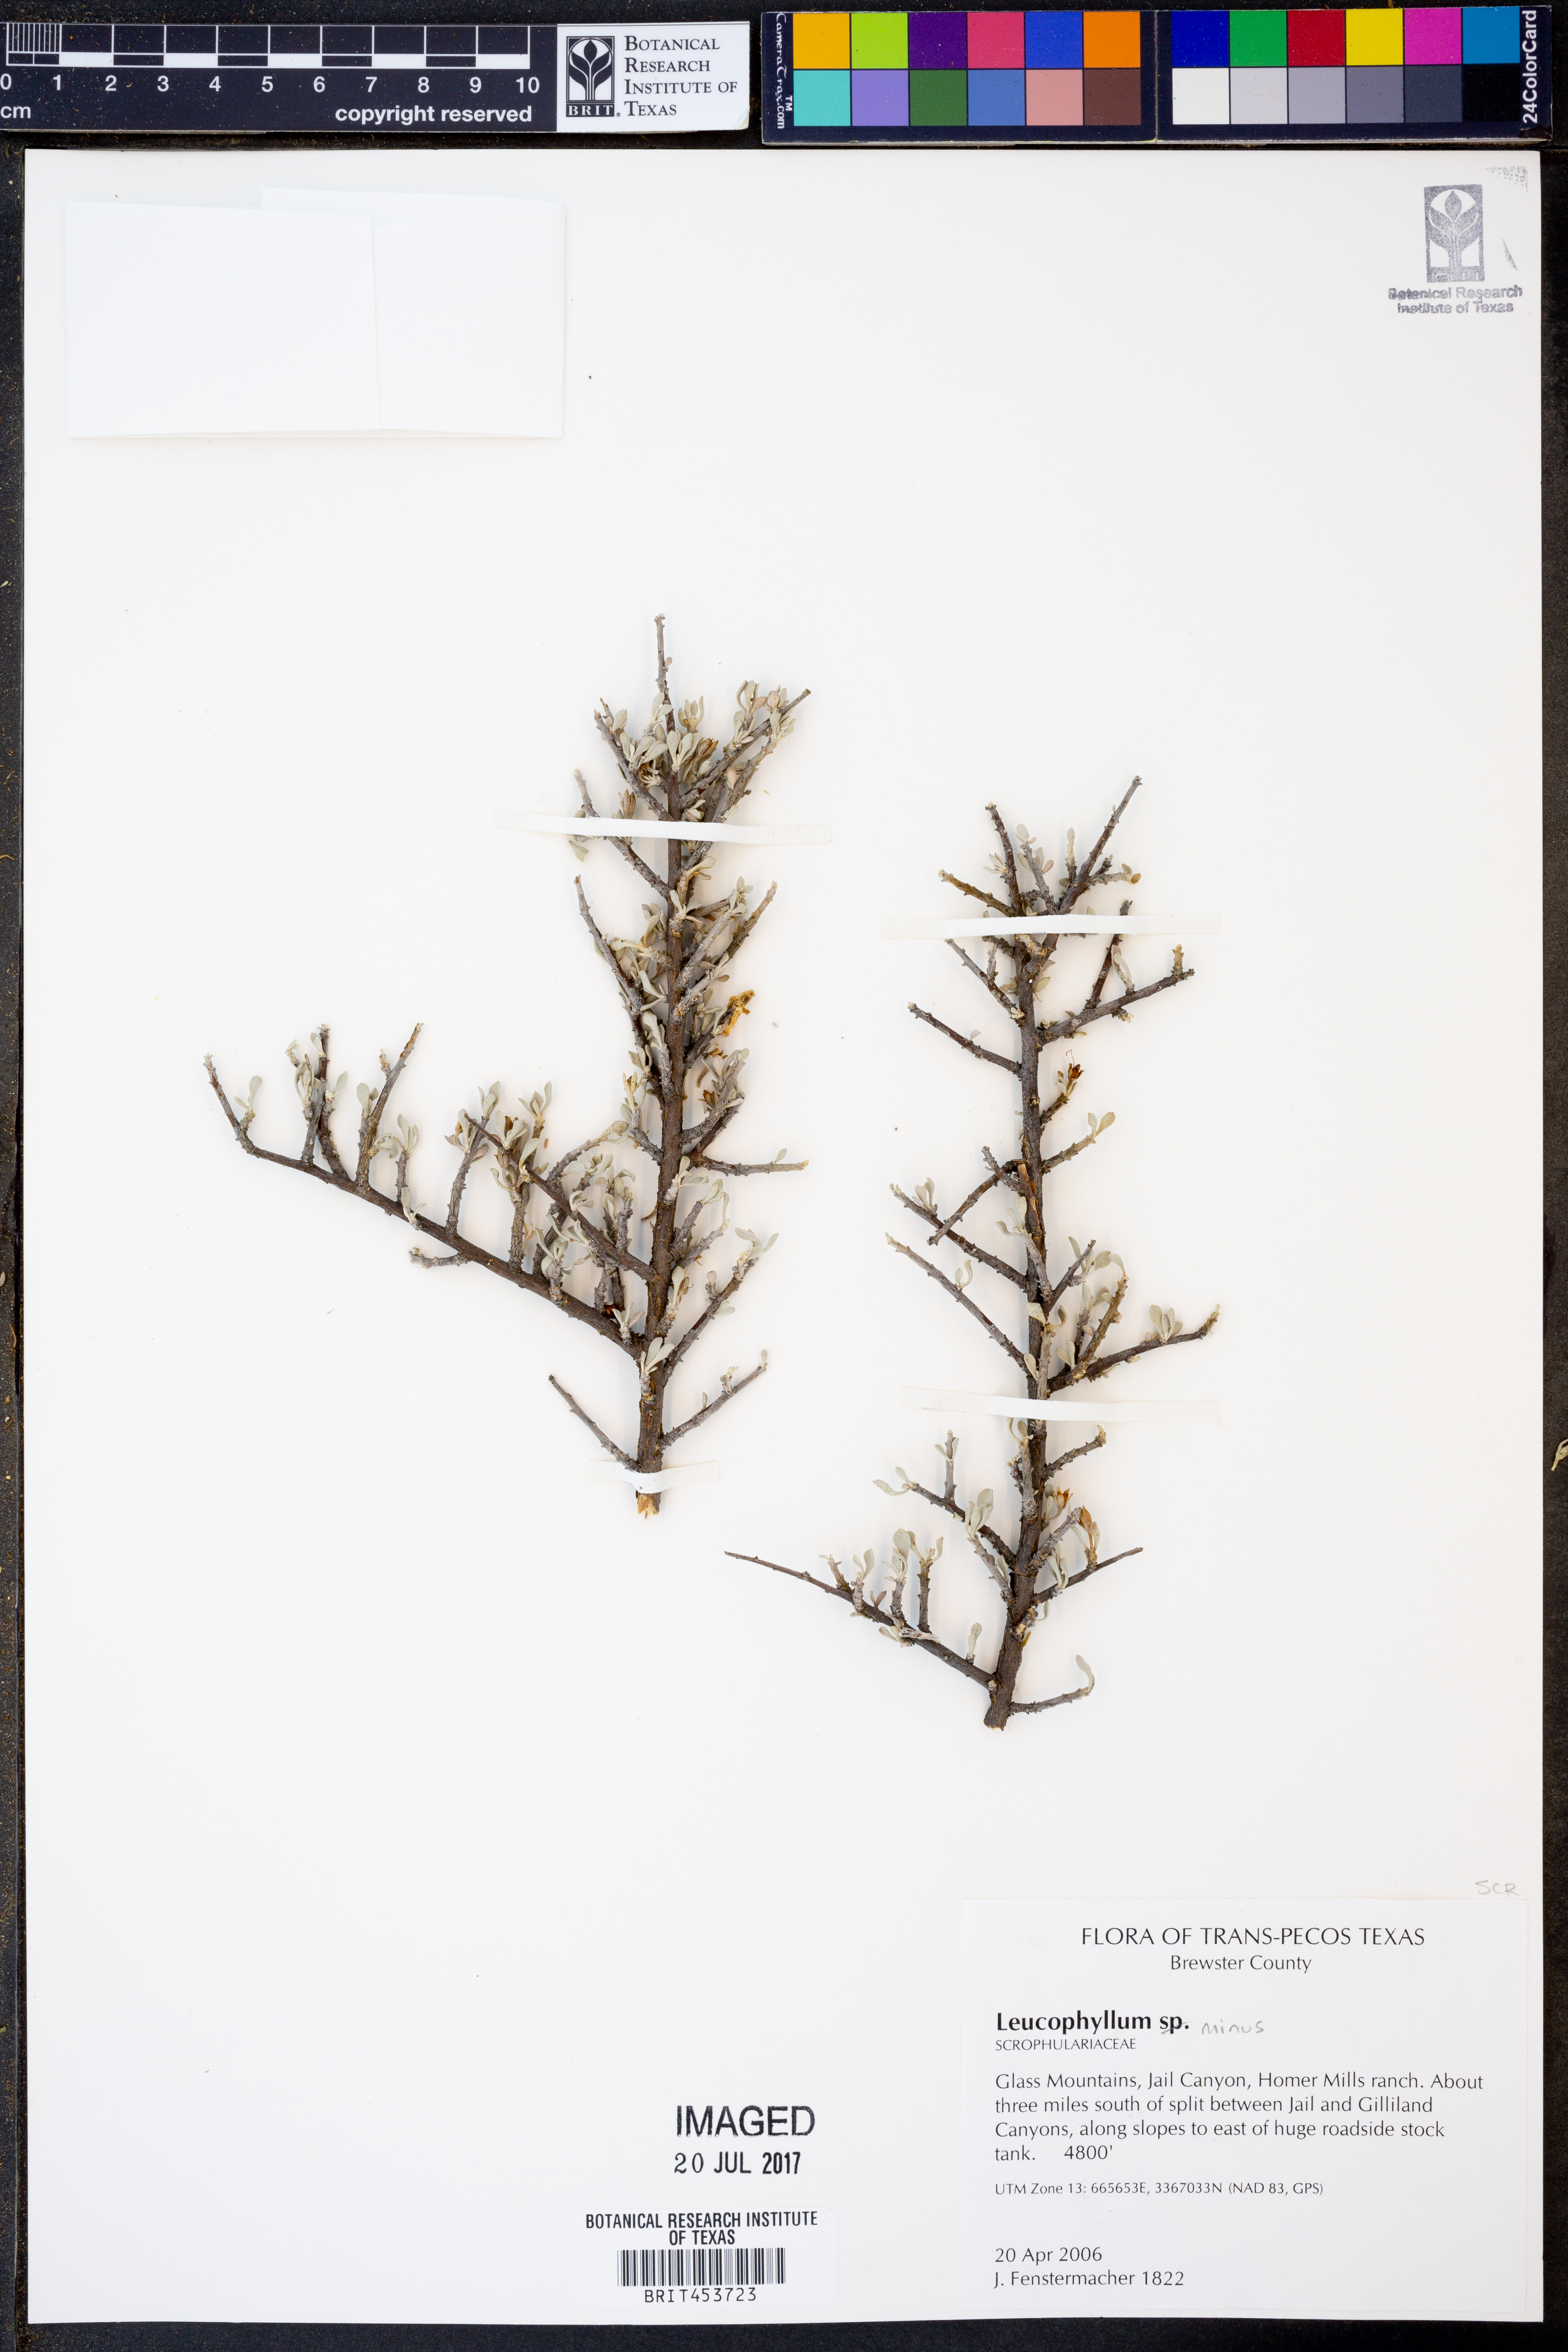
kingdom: Plantae
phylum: Tracheophyta
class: Magnoliopsida
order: Lamiales
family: Scrophulariaceae
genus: Leucophyllum
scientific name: Leucophyllum minus
